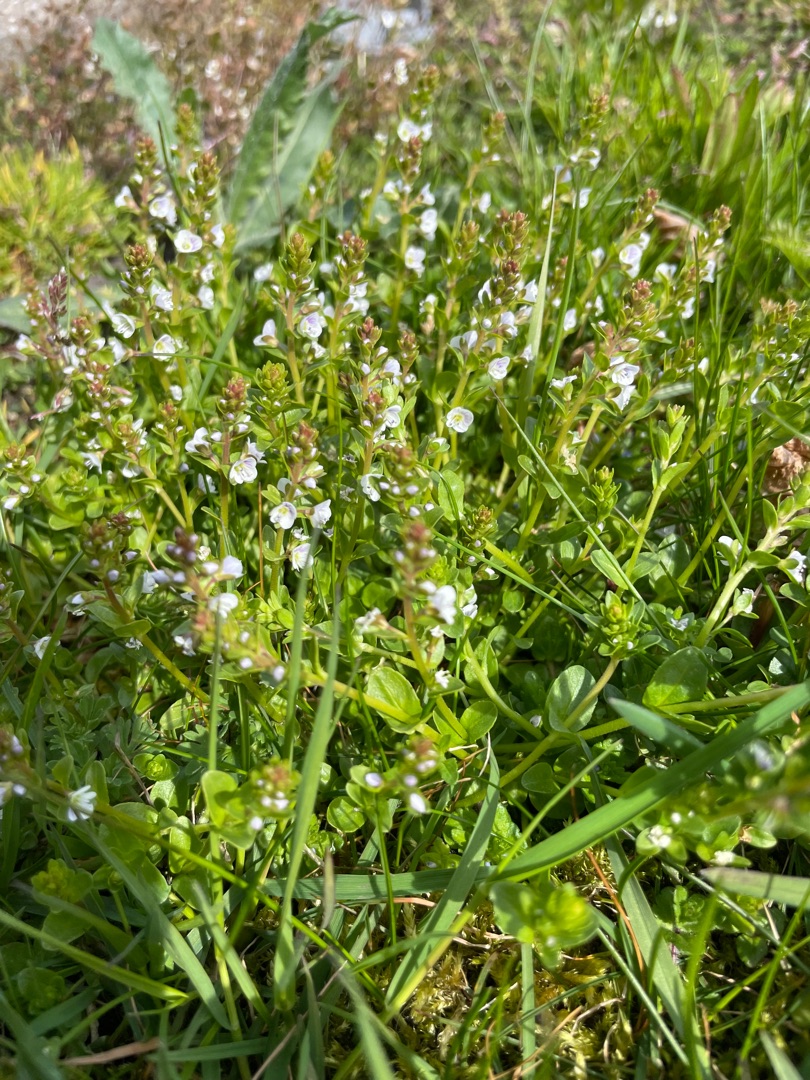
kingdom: Plantae
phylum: Tracheophyta
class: Magnoliopsida
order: Lamiales
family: Plantaginaceae
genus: Veronica
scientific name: Veronica serpyllifolia
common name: Glat ærenpris
